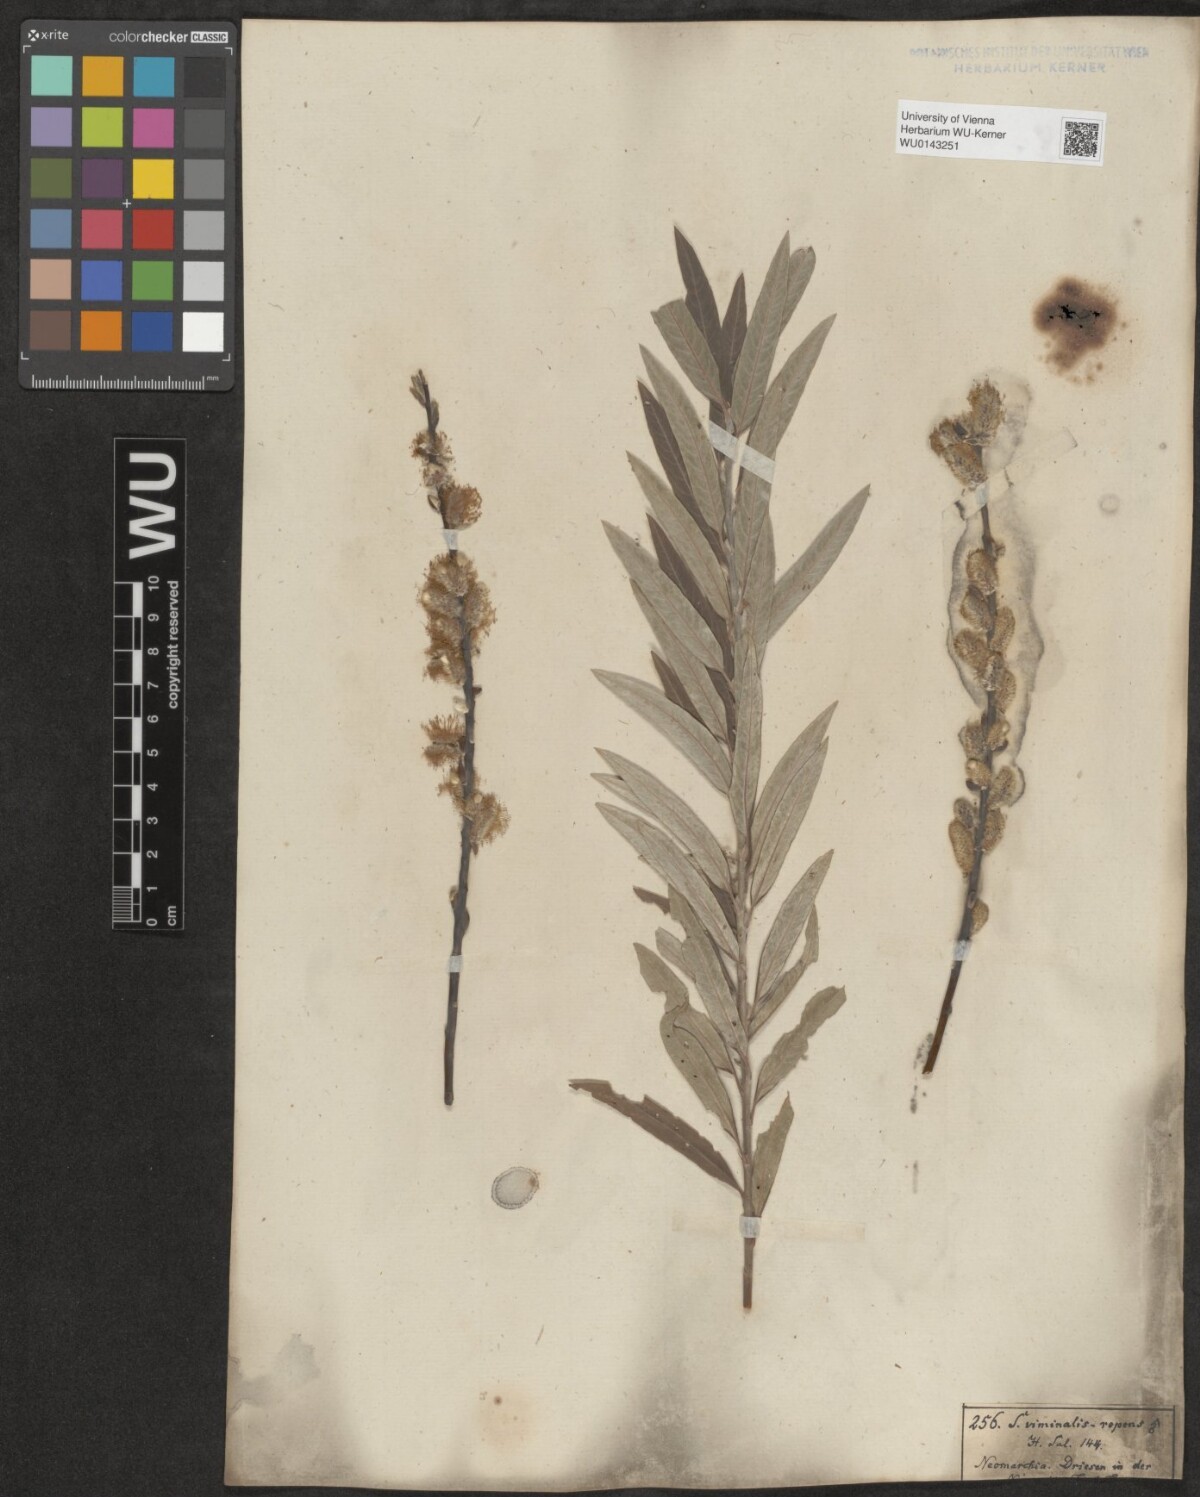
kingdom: Plantae
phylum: Tracheophyta
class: Magnoliopsida
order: Malpighiales
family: Salicaceae
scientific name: Salicaceae
